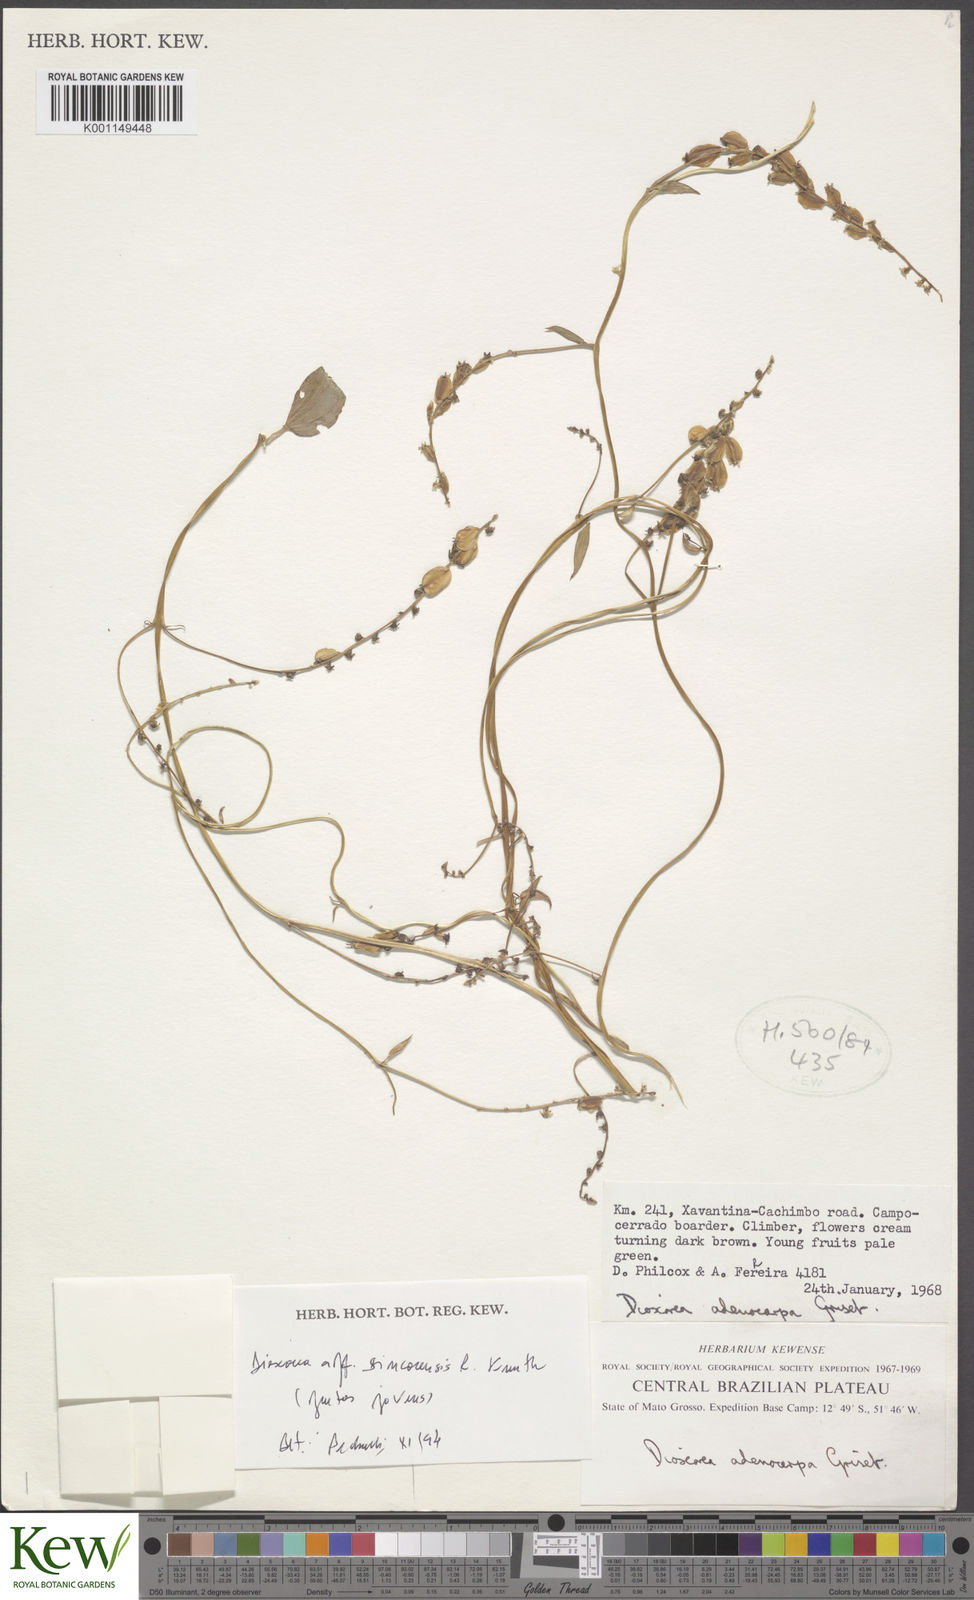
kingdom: Plantae
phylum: Tracheophyta
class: Liliopsida
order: Dioscoreales
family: Dioscoreaceae
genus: Dioscorea
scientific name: Dioscorea monadelpha
